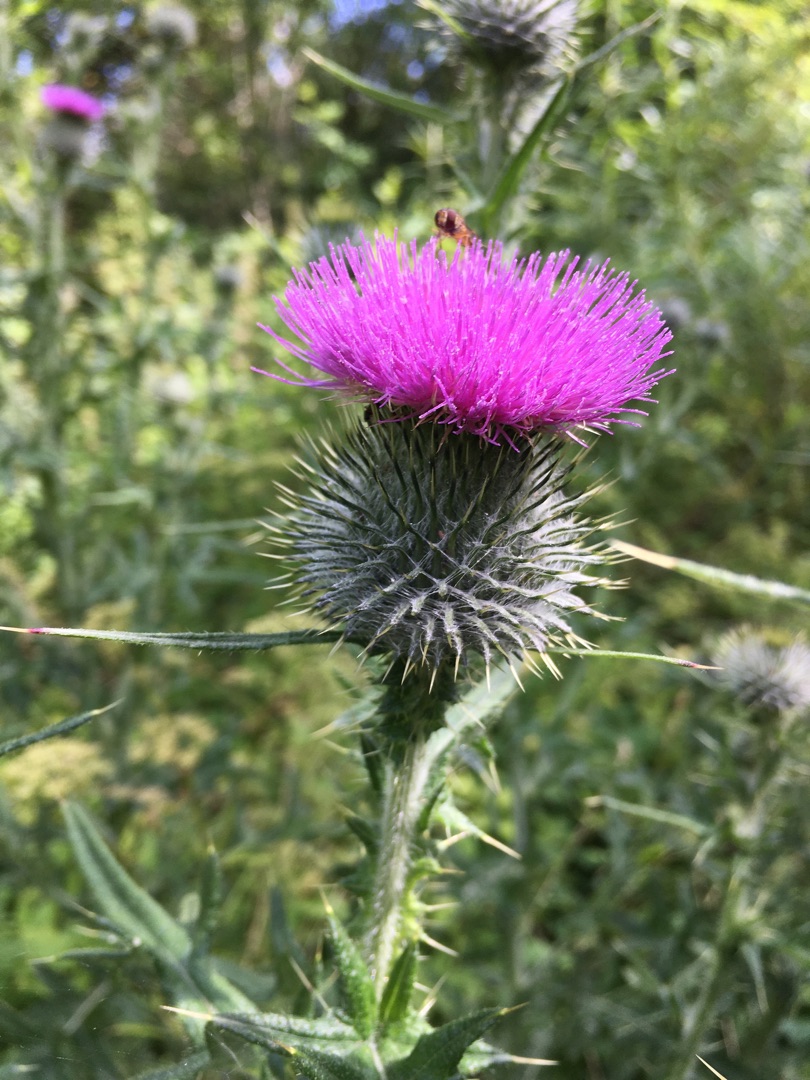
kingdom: Plantae
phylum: Tracheophyta
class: Magnoliopsida
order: Asterales
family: Asteraceae
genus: Cirsium
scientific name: Cirsium vulgare
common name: Horse-tidsel
